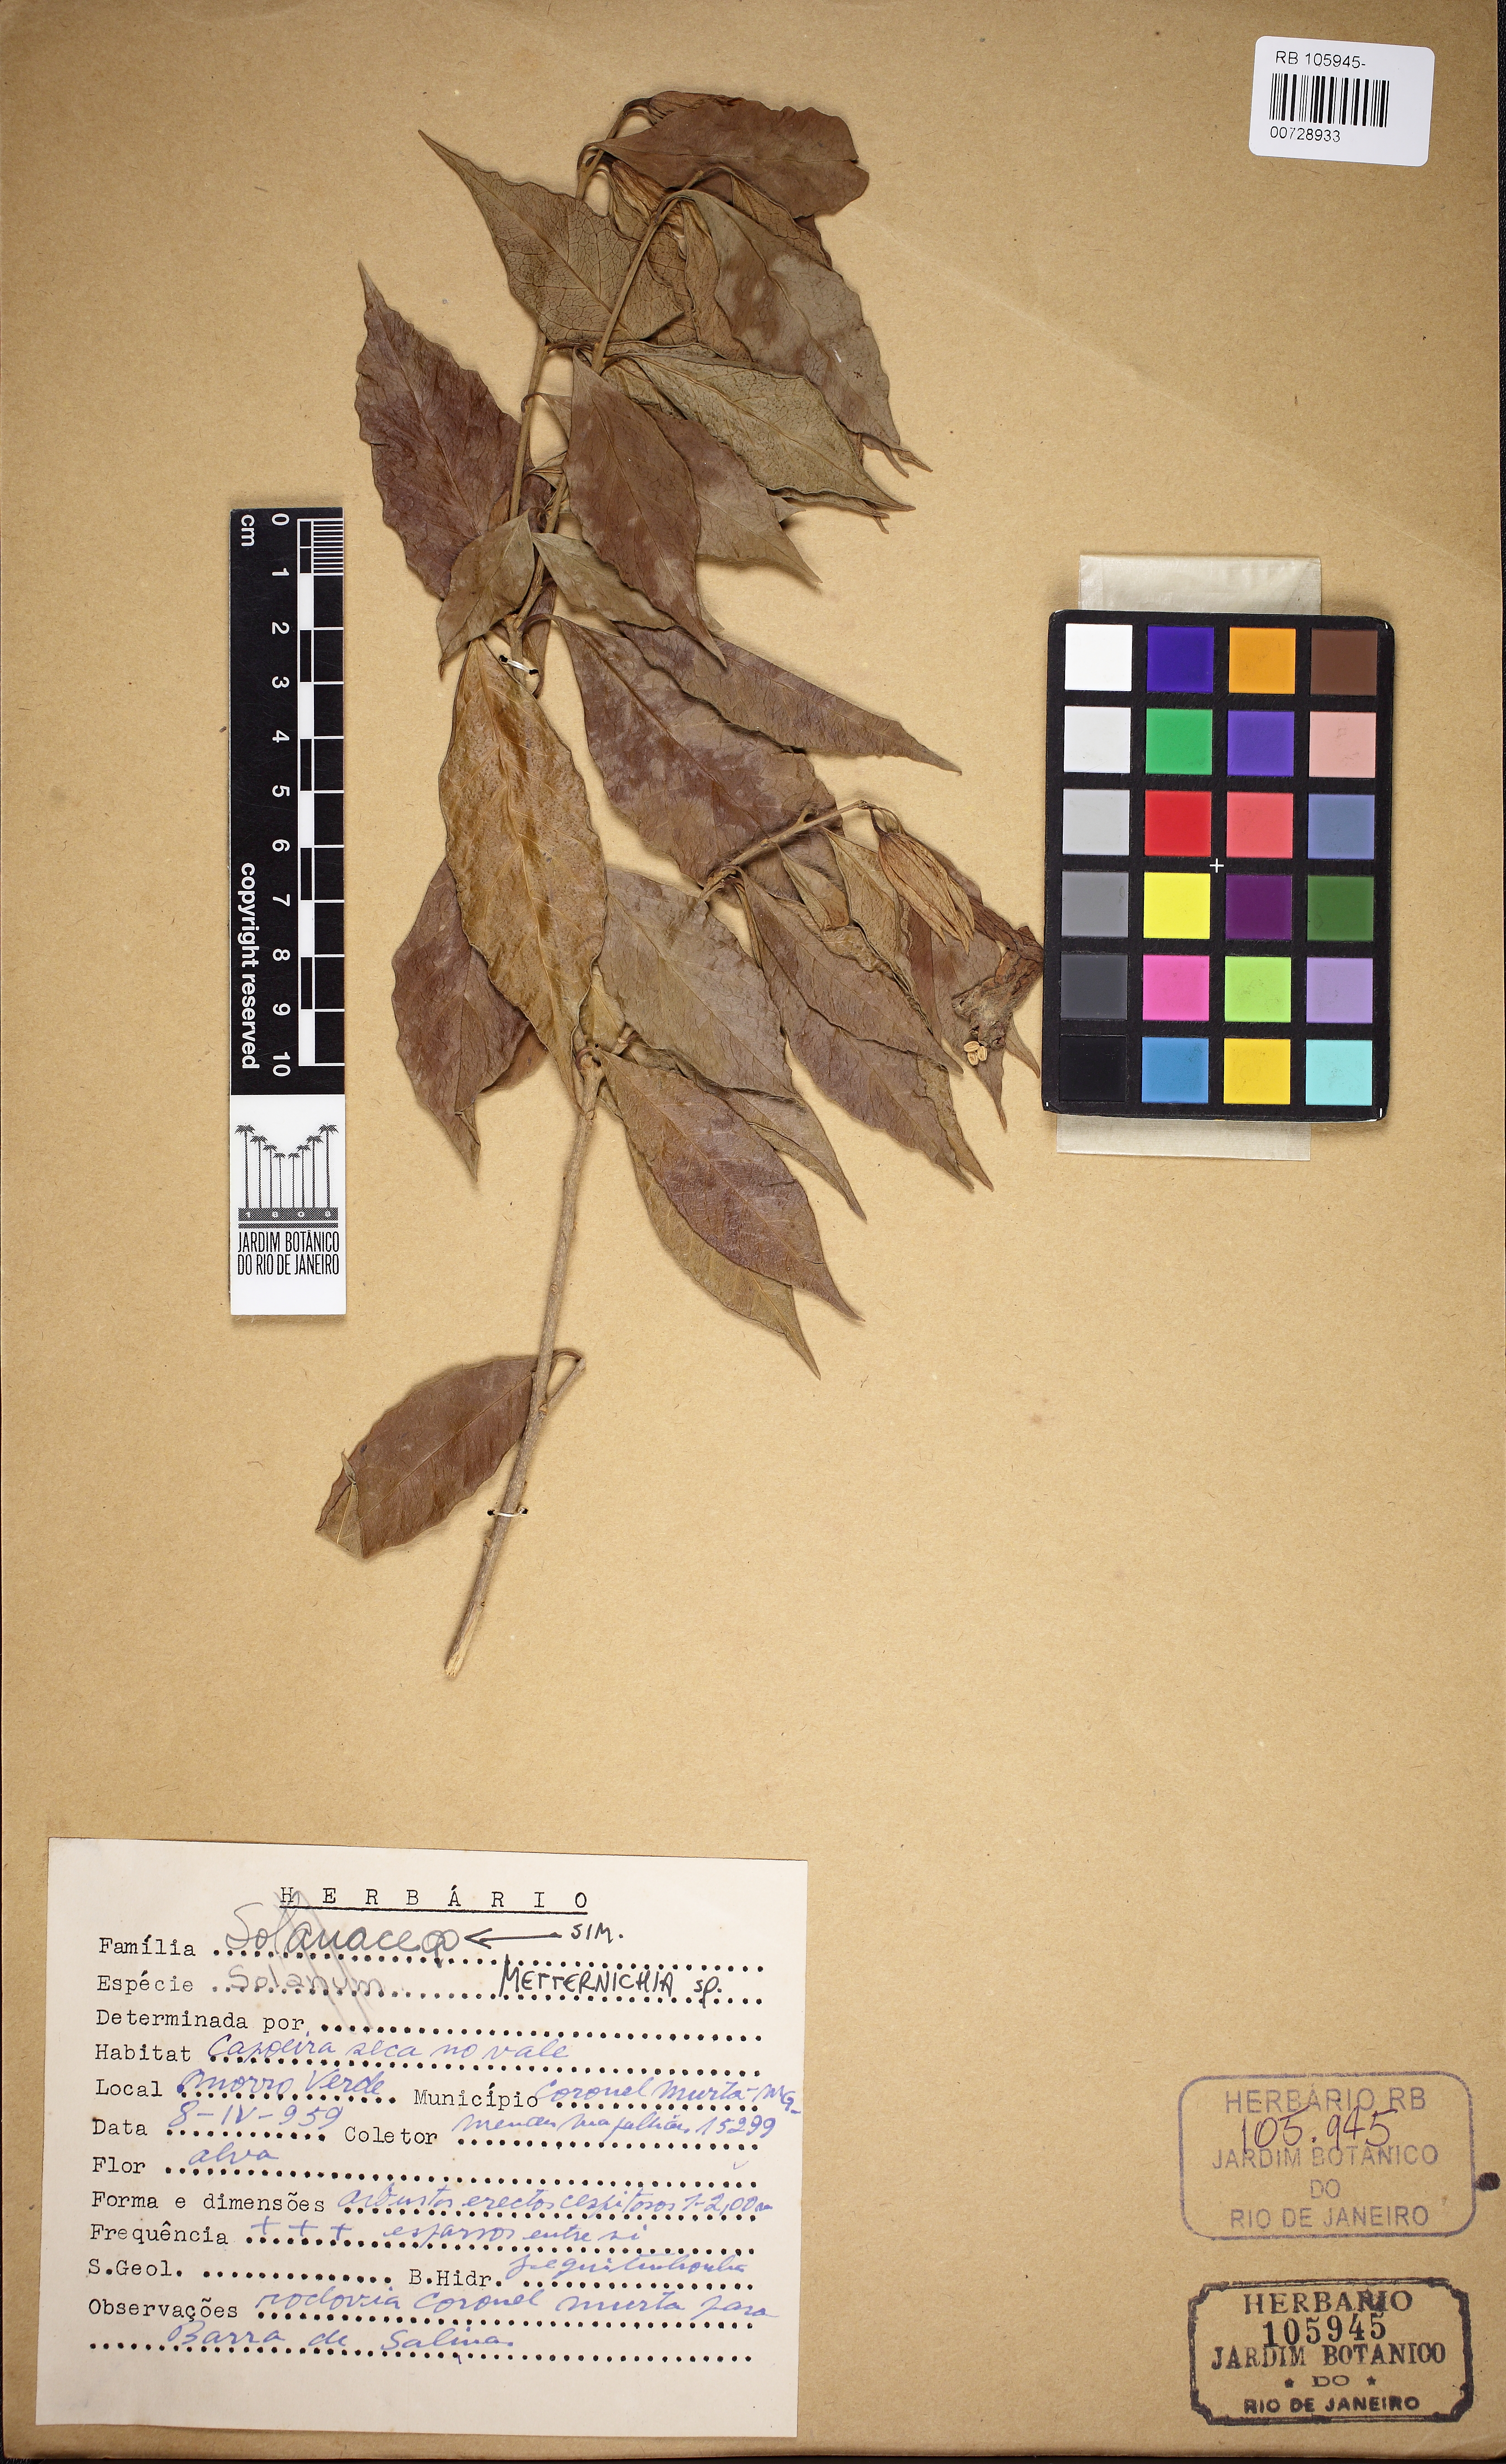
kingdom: Plantae
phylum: Tracheophyta
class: Magnoliopsida
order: Solanales
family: Solanaceae
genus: Metternichia
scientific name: Metternichia
